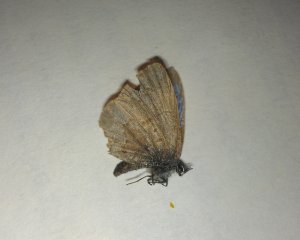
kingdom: Animalia
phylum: Arthropoda
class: Insecta
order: Lepidoptera
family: Lycaenidae
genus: Celastrina
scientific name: Celastrina lucia
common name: Northern Spring Azure
